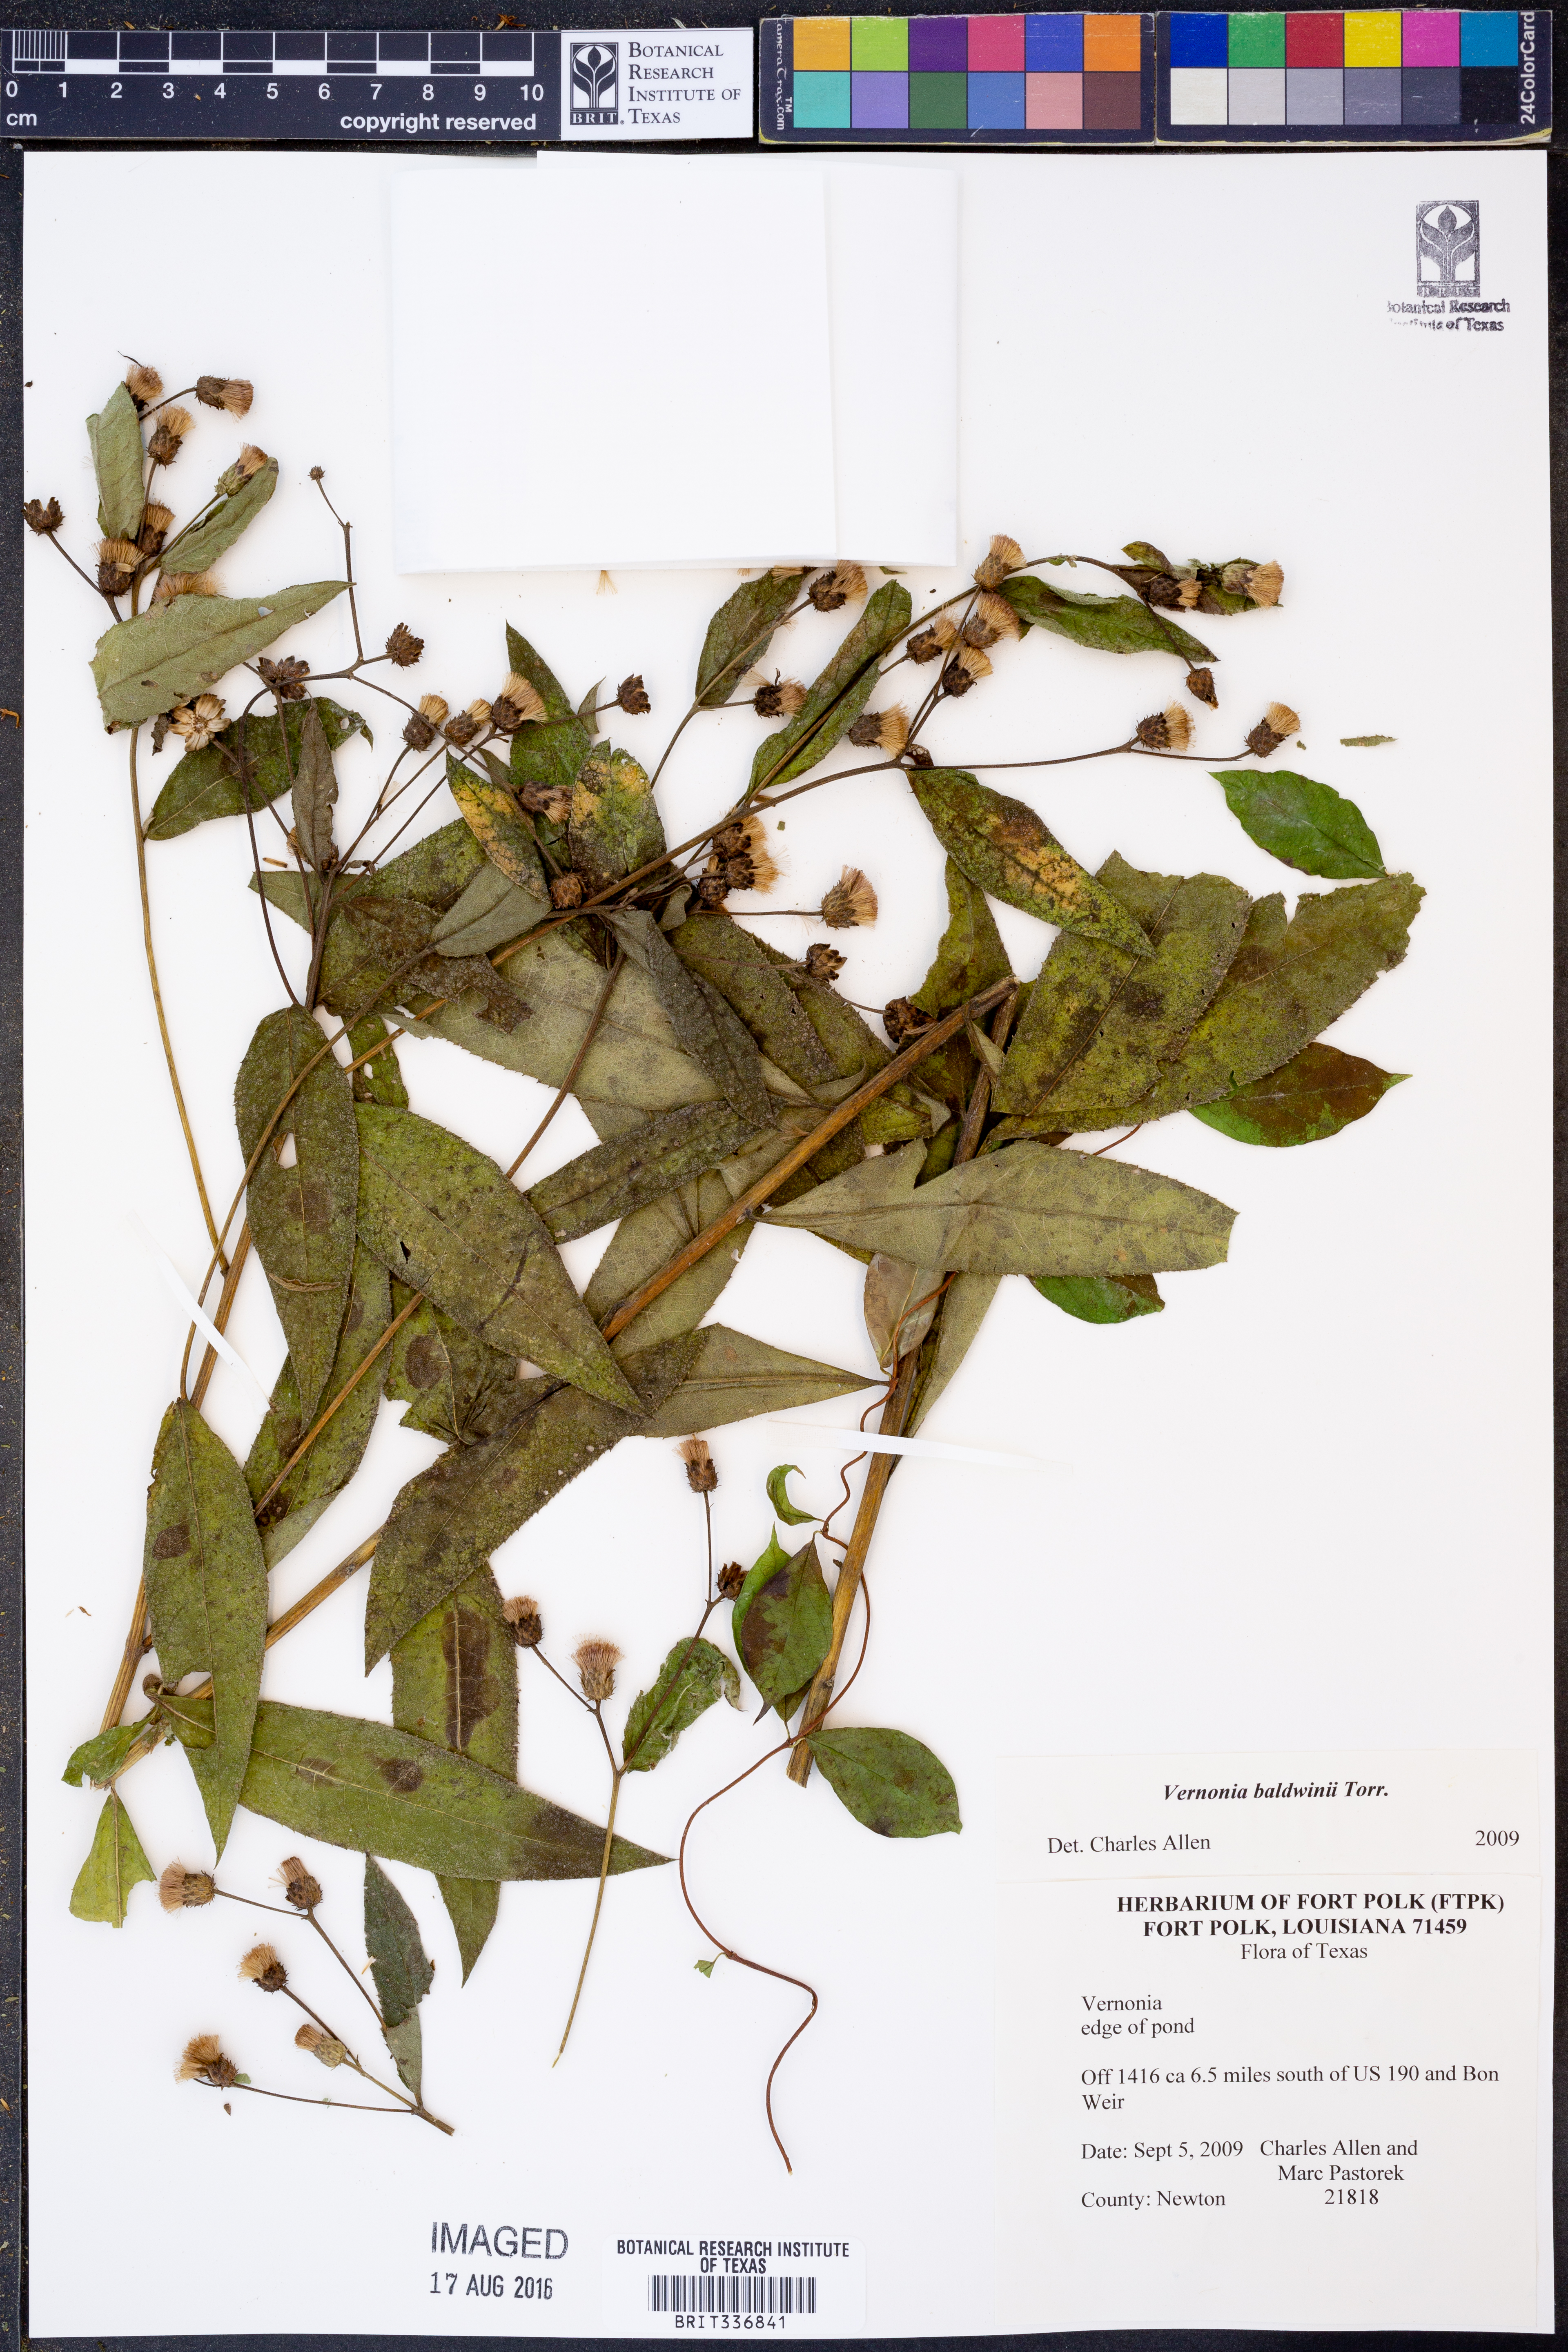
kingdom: Plantae
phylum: Tracheophyta
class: Magnoliopsida
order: Asterales
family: Asteraceae
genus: Vernonia
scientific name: Vernonia baldwinii
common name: Western ironweed
